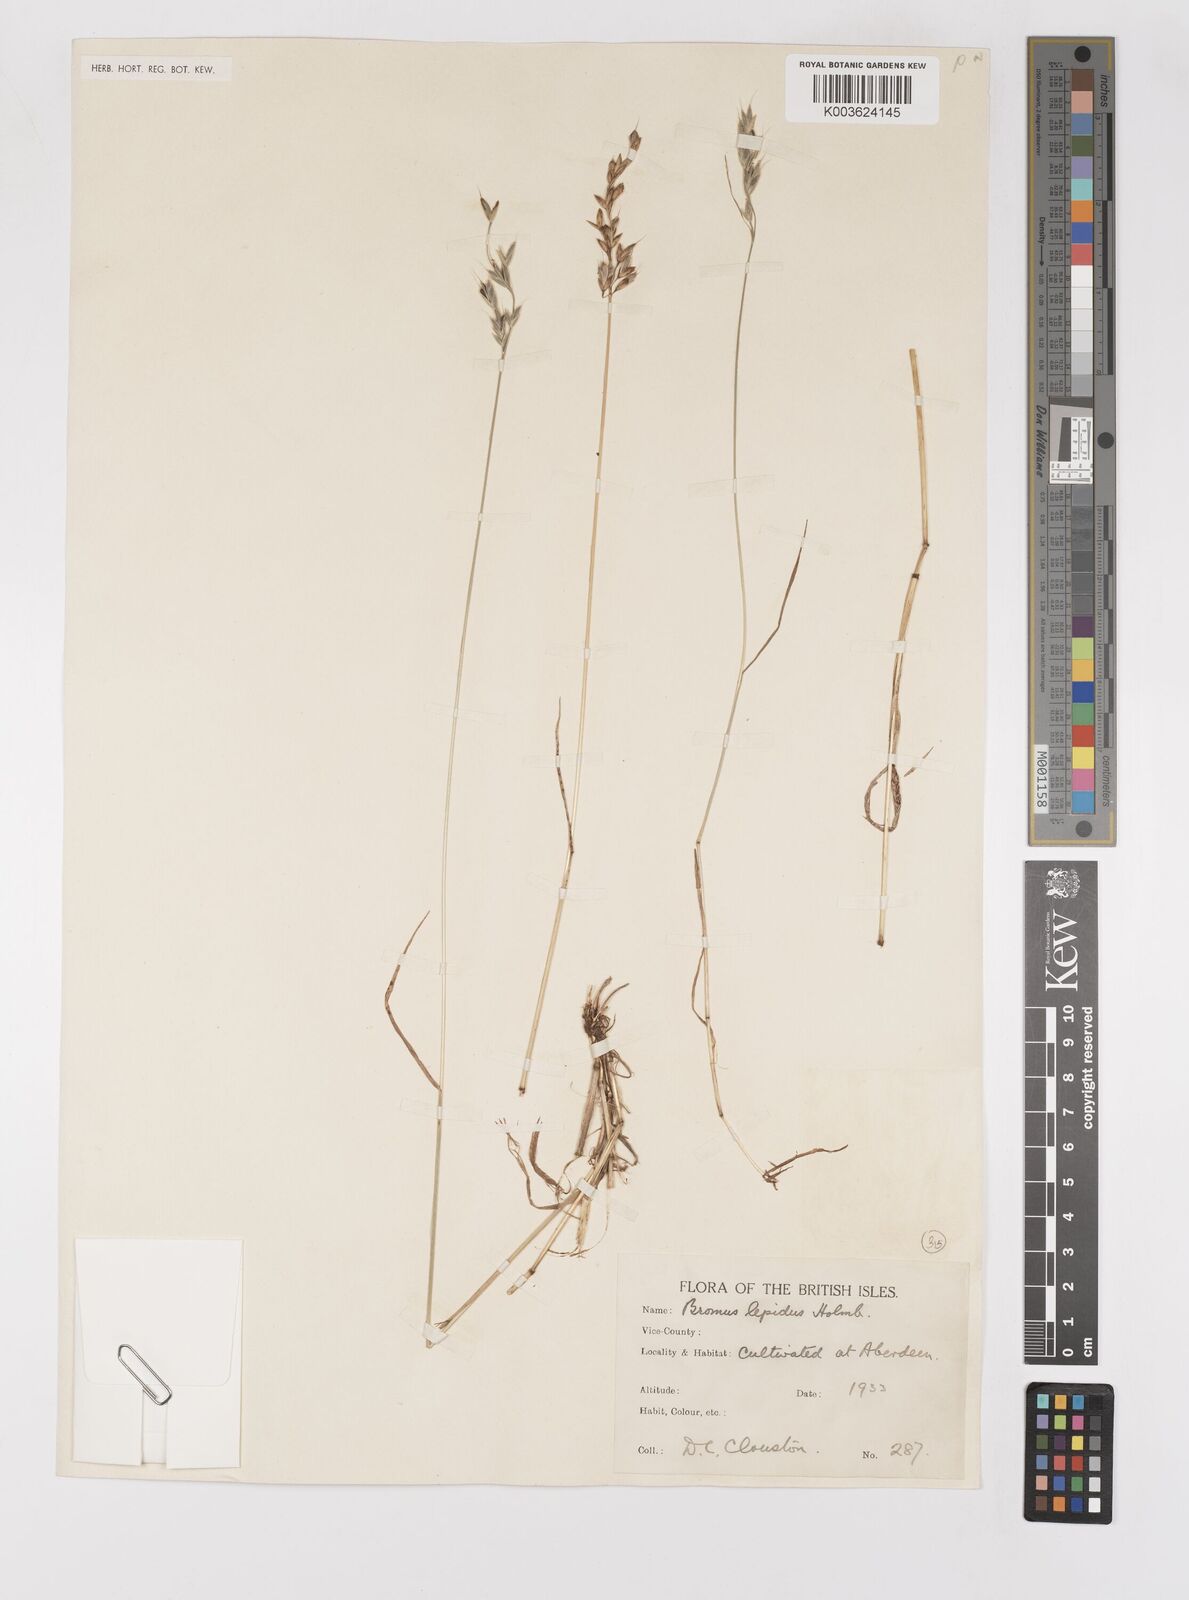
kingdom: Plantae
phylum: Tracheophyta
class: Liliopsida
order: Poales
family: Poaceae
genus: Bromus
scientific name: Bromus hordeaceus
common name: Soft brome
